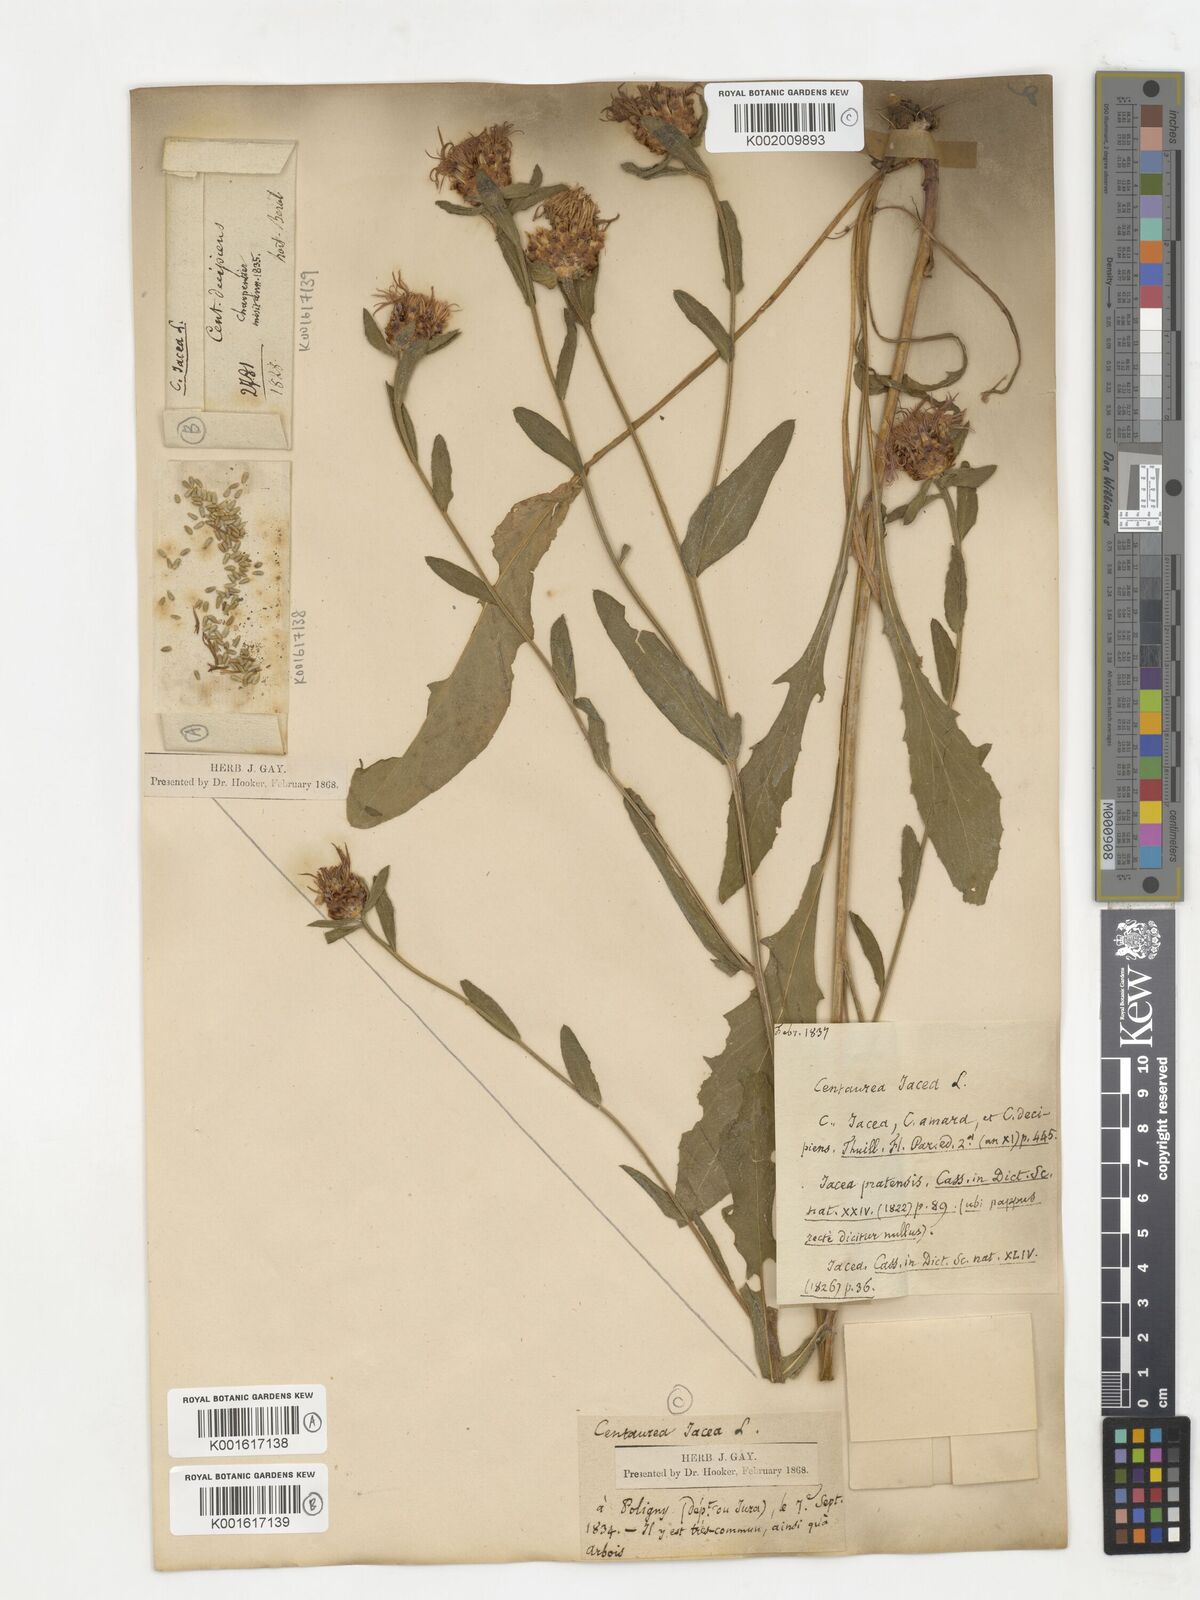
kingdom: Plantae
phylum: Tracheophyta
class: Magnoliopsida
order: Asterales
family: Asteraceae
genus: Centaurea
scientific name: Centaurea decipiens
